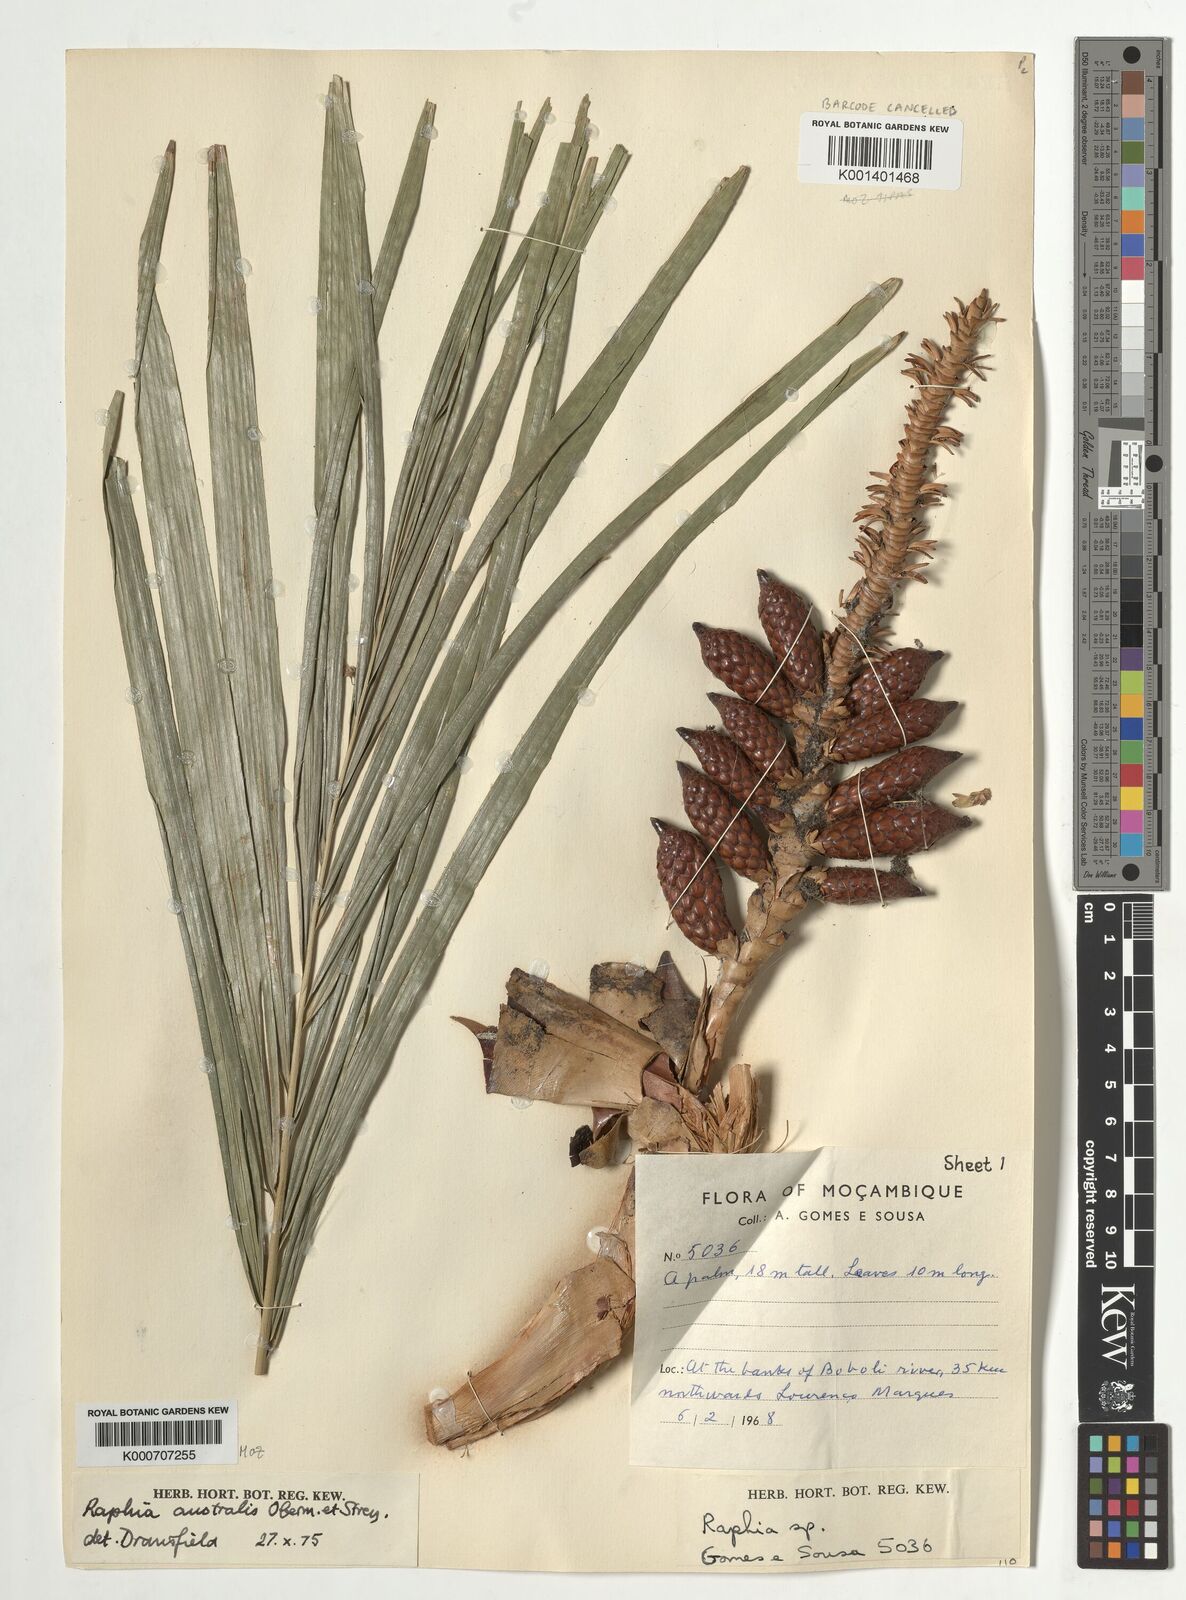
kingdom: Plantae
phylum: Tracheophyta
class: Liliopsida
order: Arecales
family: Arecaceae
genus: Raphia
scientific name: Raphia australis
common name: Giant palm
